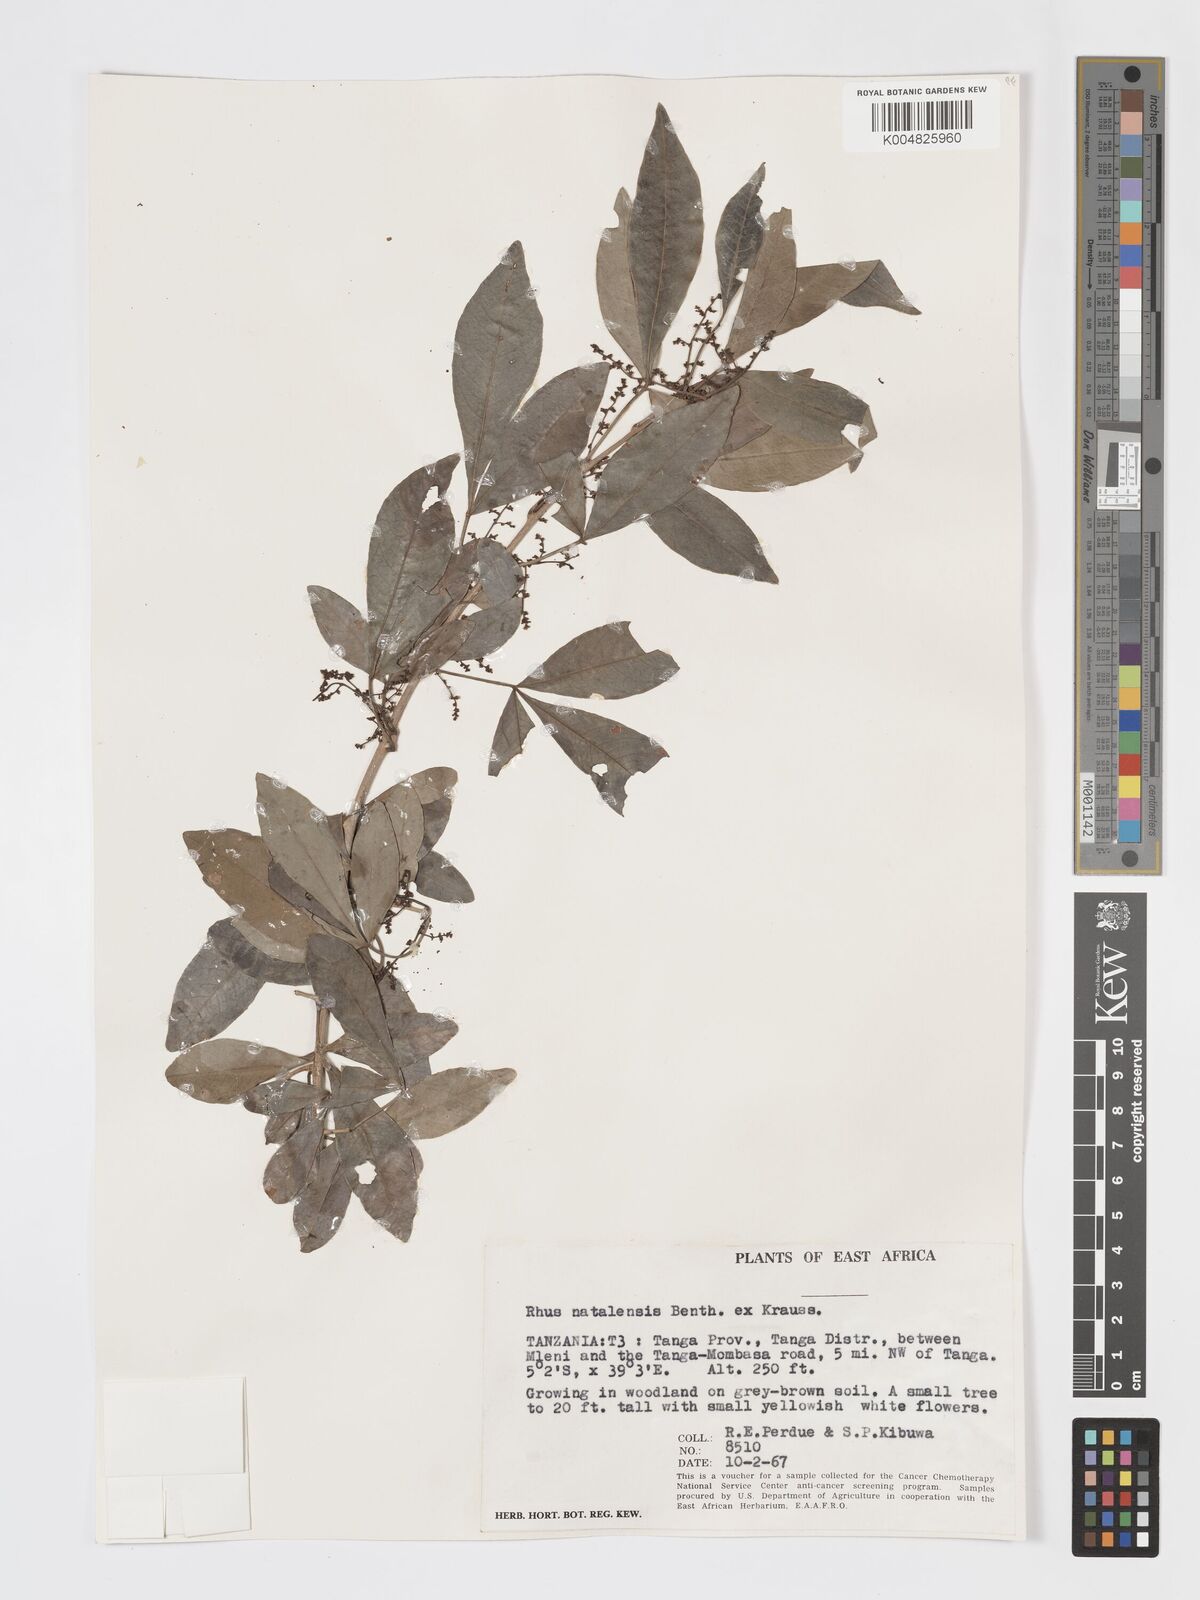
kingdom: Plantae
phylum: Tracheophyta
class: Magnoliopsida
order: Sapindales
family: Anacardiaceae
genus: Searsia
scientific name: Searsia natalensis
